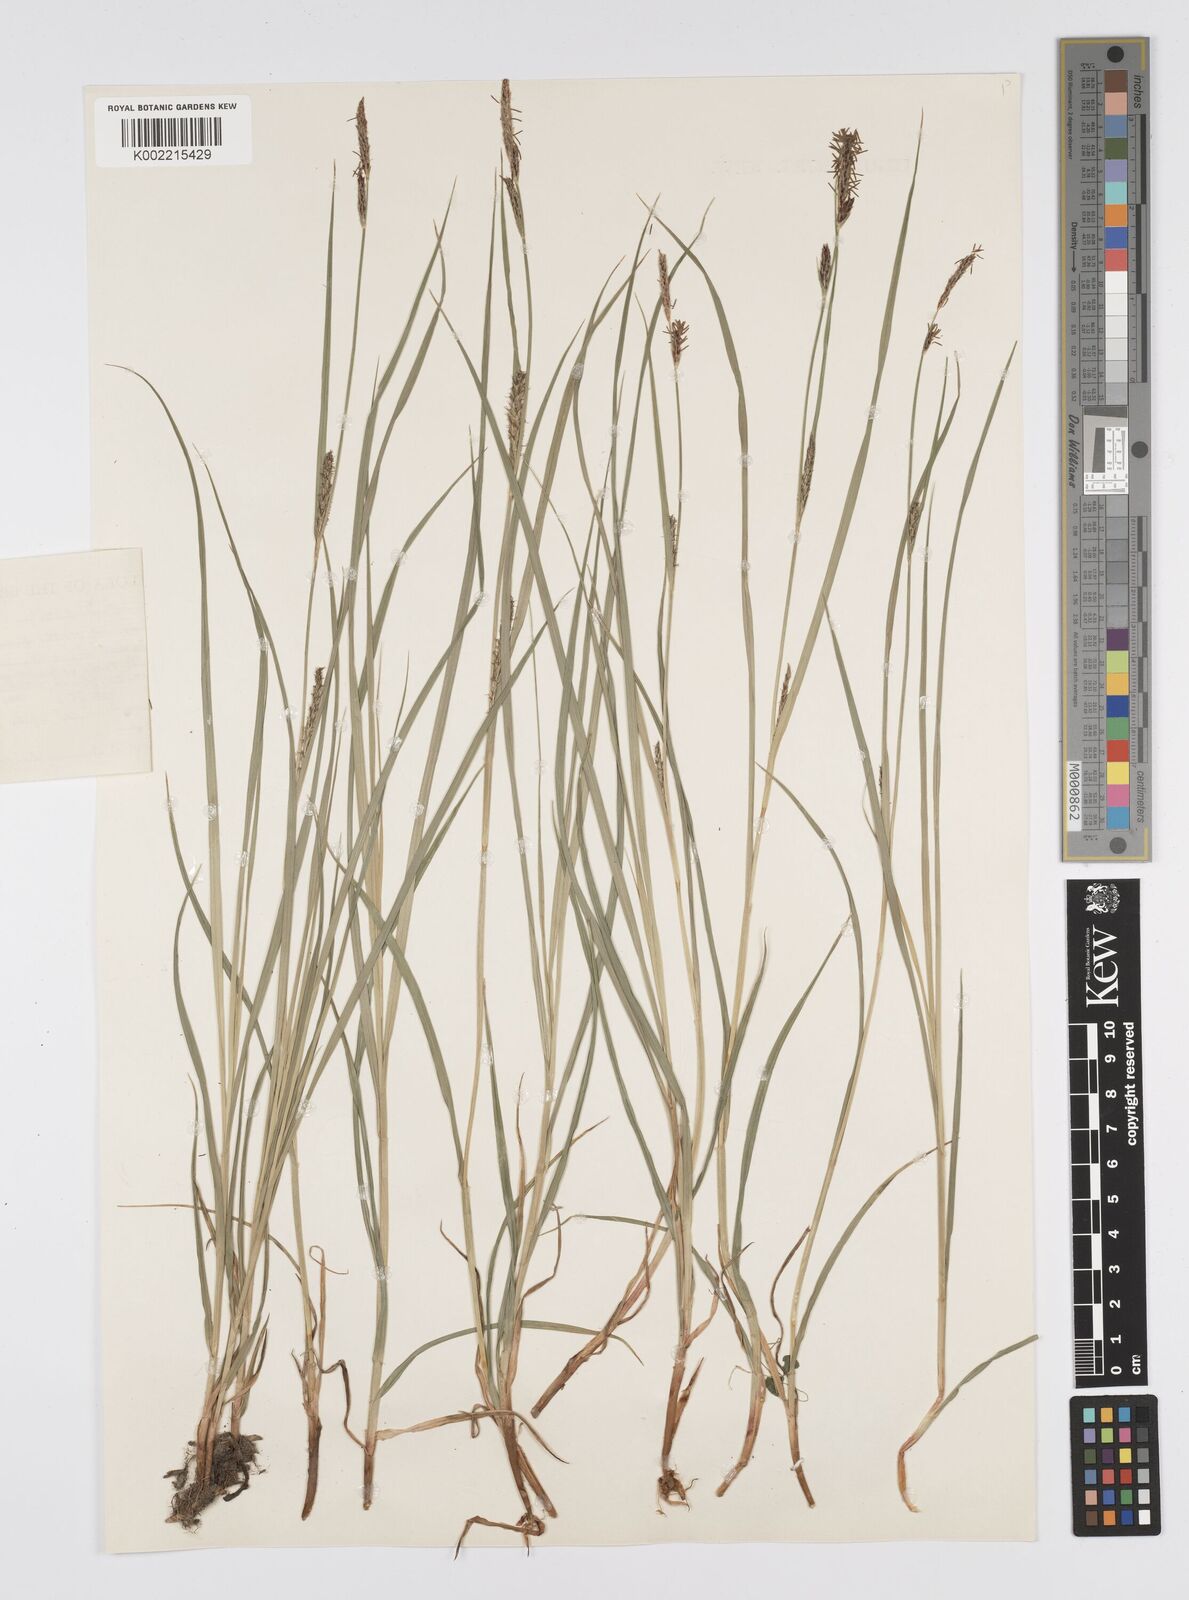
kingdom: Plantae
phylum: Tracheophyta
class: Liliopsida
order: Poales
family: Cyperaceae
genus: Carex
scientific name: Carex hirta
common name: Hairy sedge
